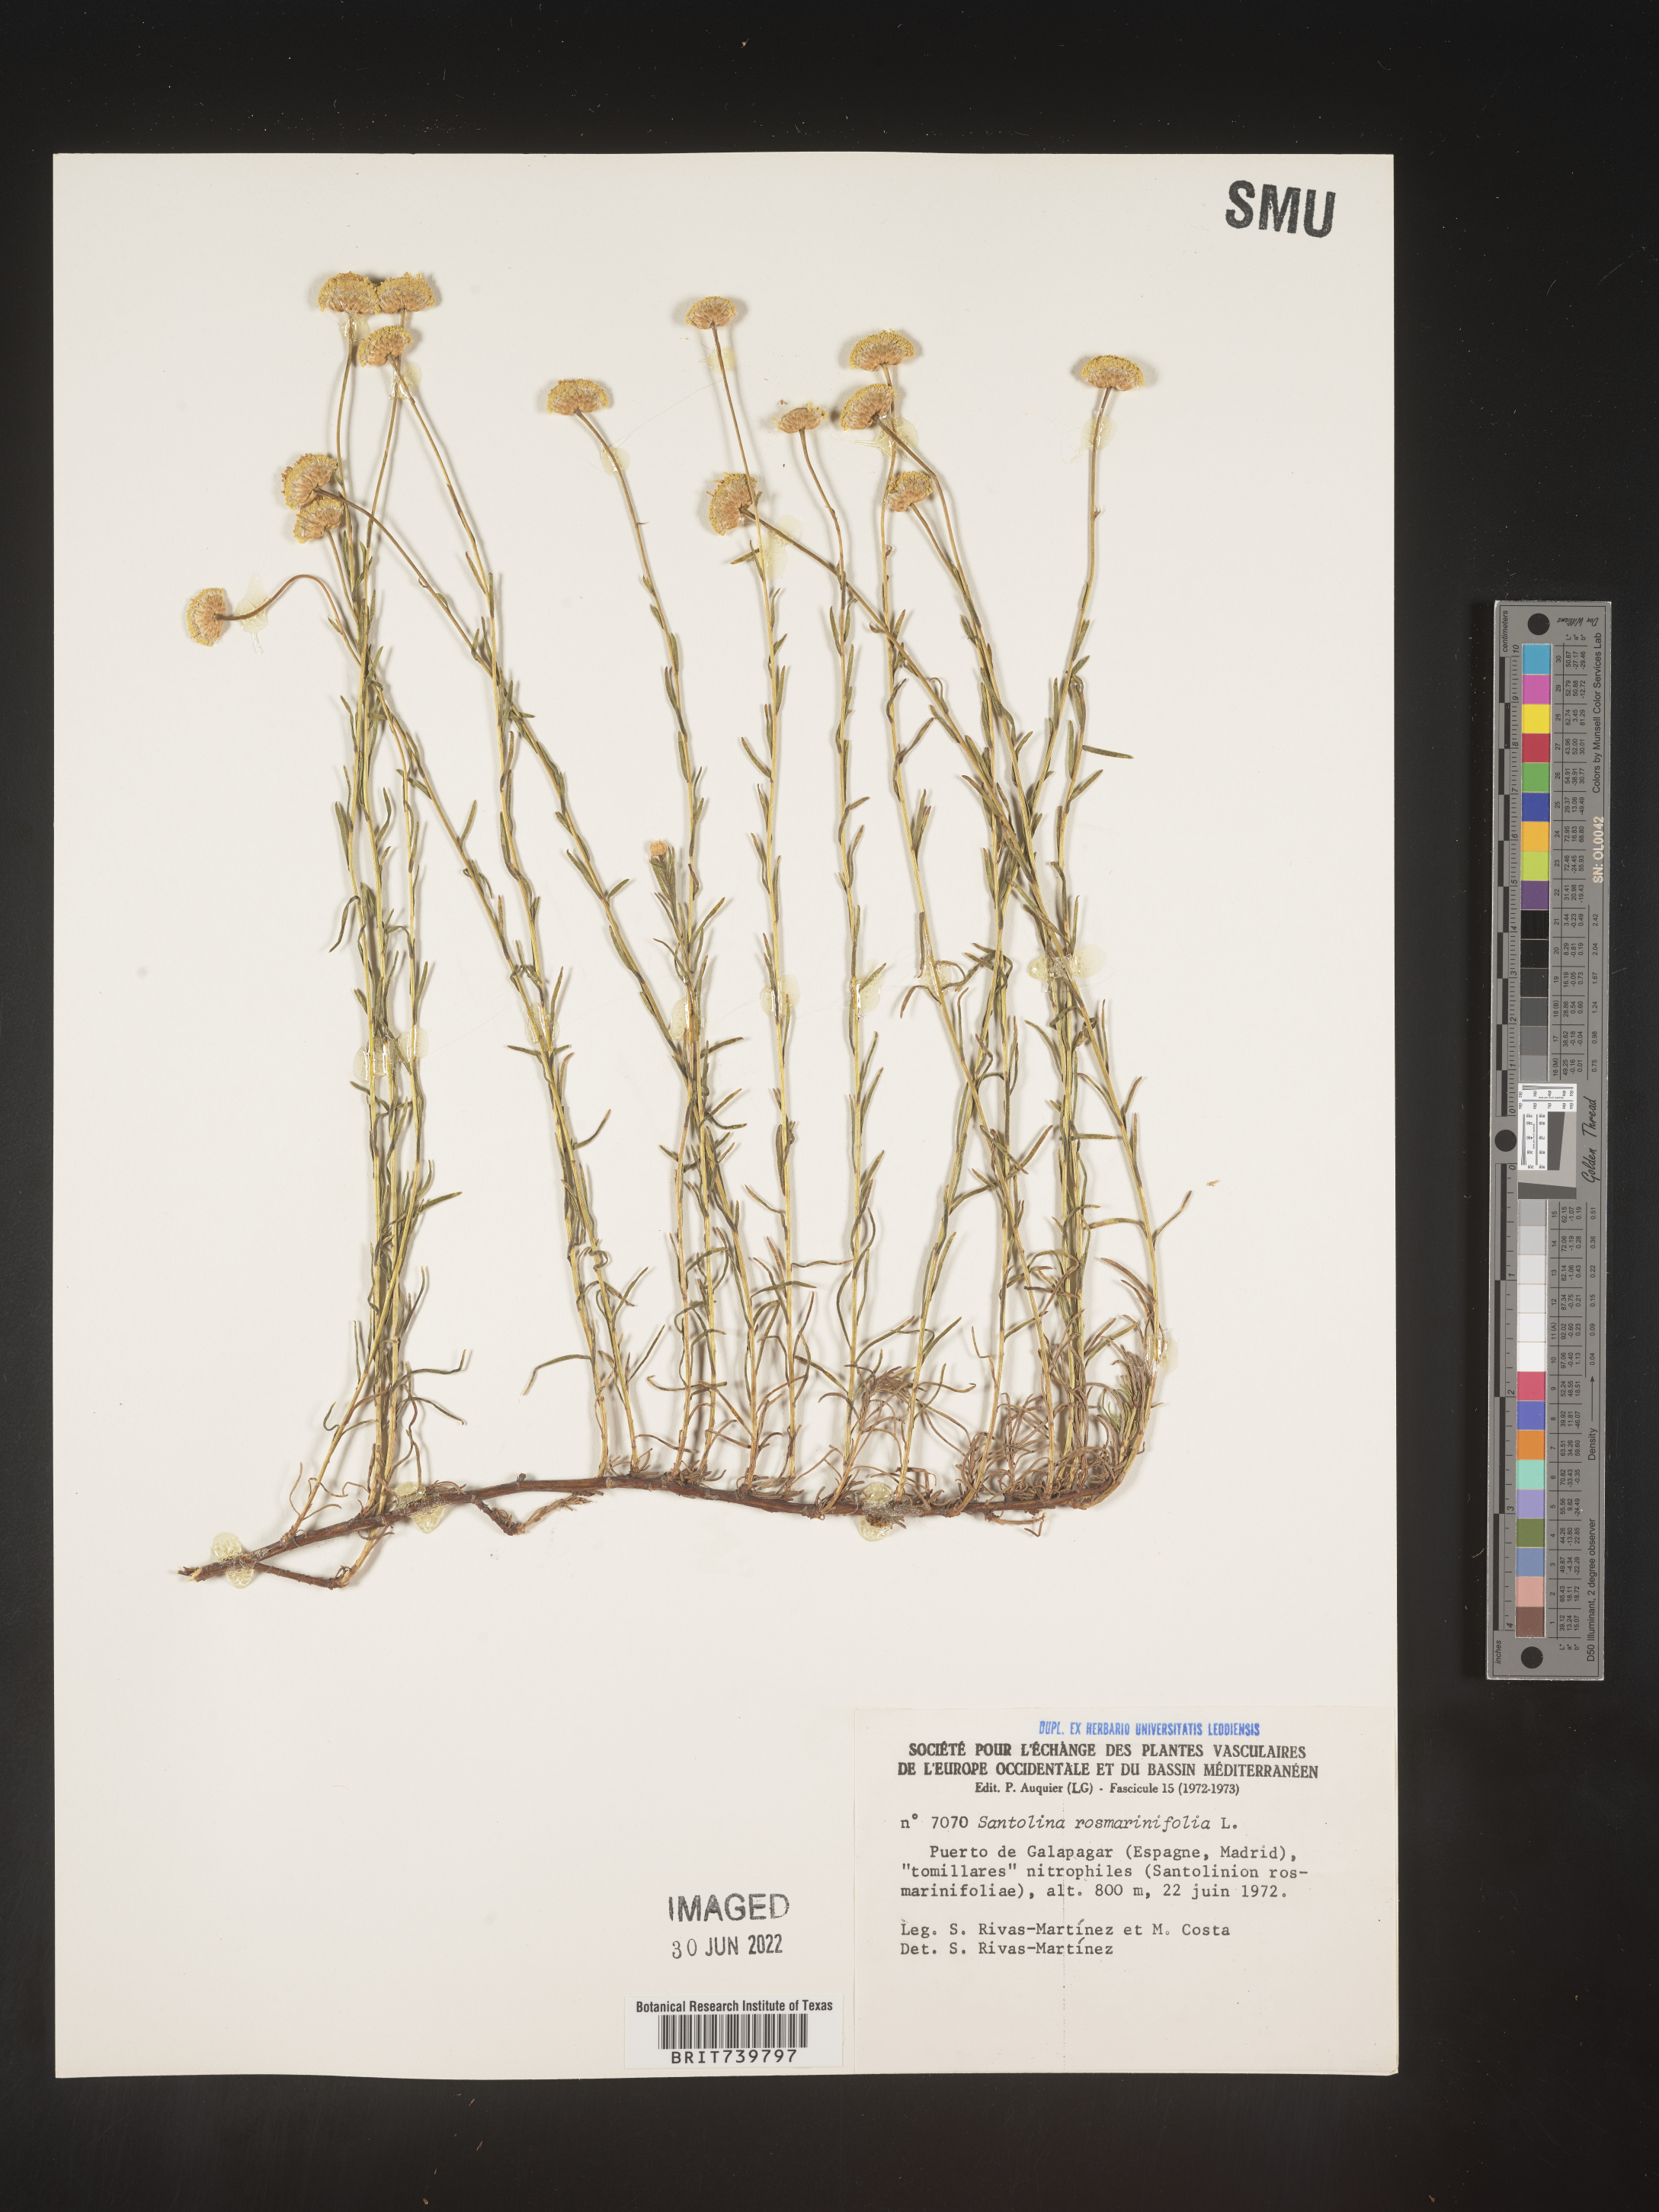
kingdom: Plantae
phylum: Tracheophyta
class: Magnoliopsida
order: Asterales
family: Asteraceae
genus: Santolina
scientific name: Santolina
